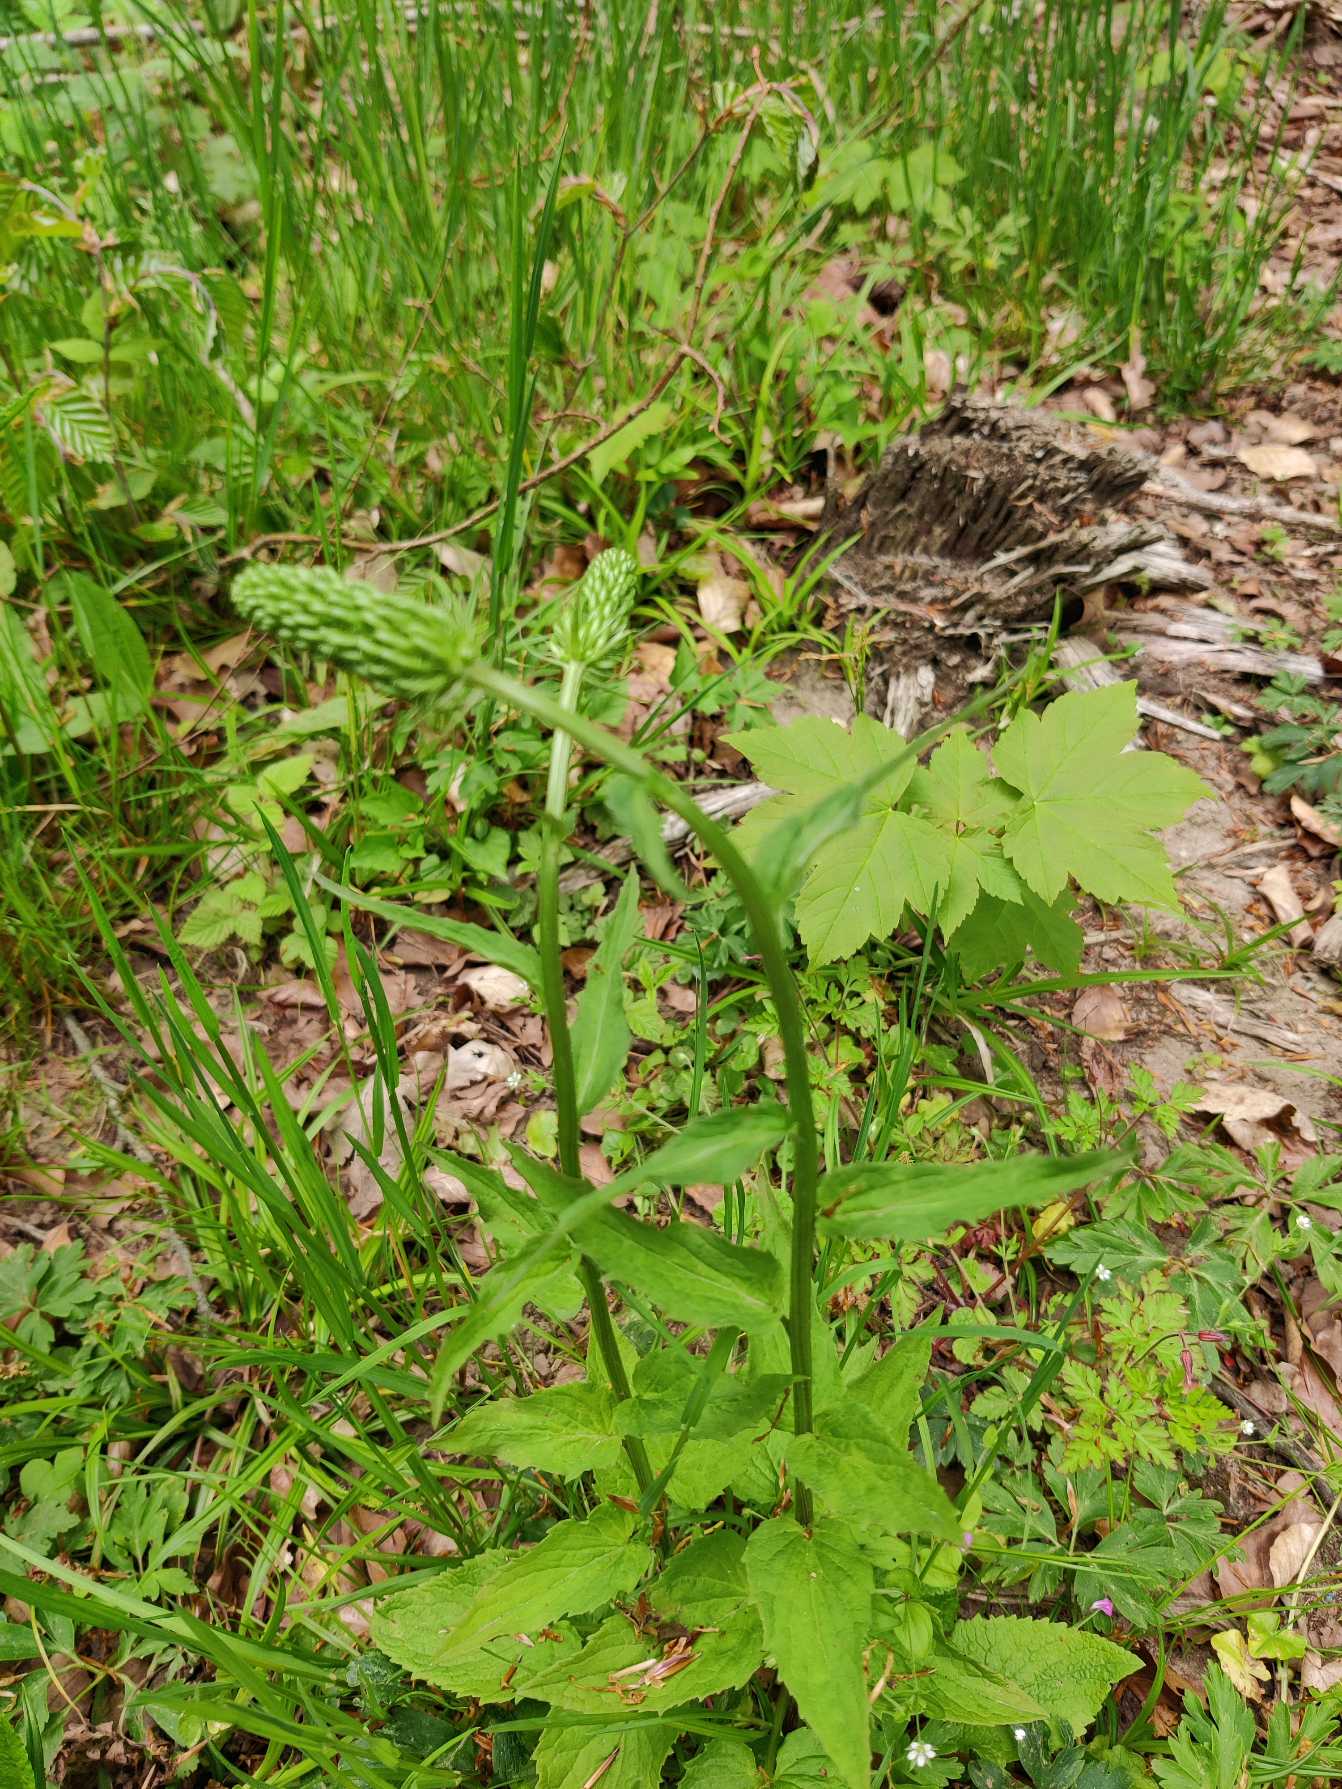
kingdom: Plantae
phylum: Tracheophyta
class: Magnoliopsida
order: Asterales
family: Campanulaceae
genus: Phyteuma
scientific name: Phyteuma spicatum
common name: Aks-rapunsel
